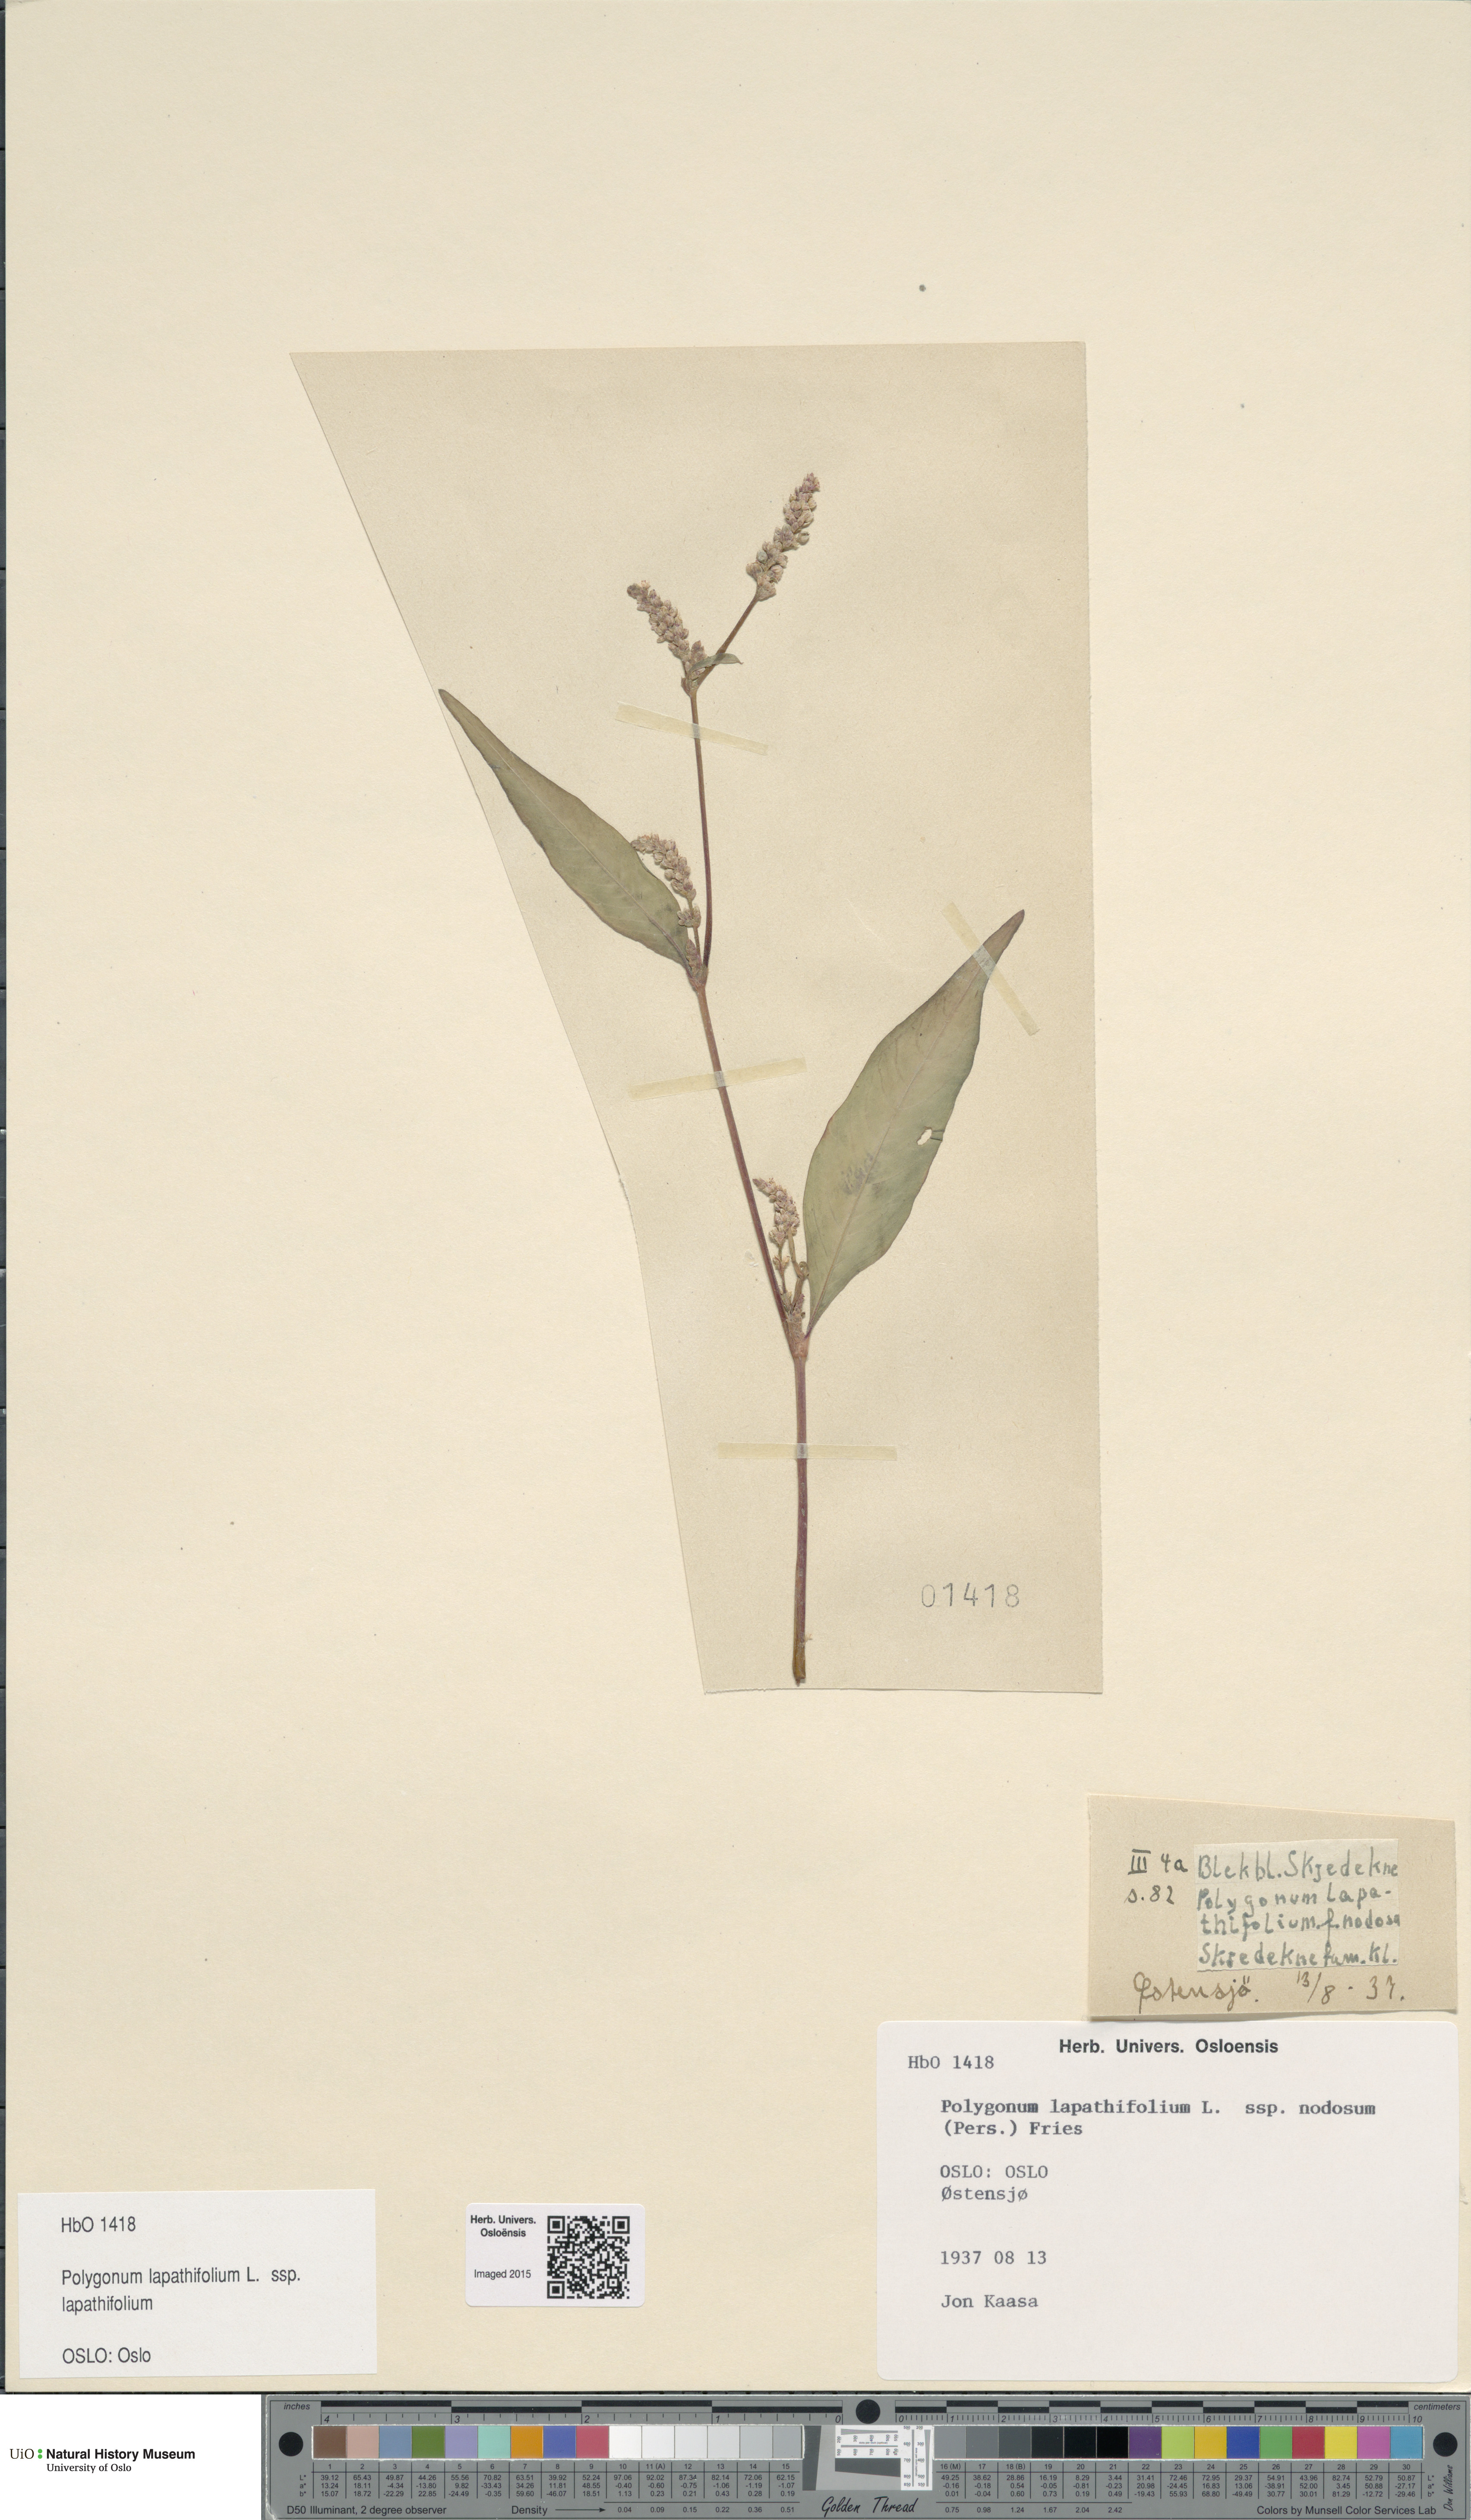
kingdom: Plantae
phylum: Tracheophyta
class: Magnoliopsida
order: Caryophyllales
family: Polygonaceae
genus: Persicaria
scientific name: Persicaria lapathifolia
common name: Curlytop knotweed
